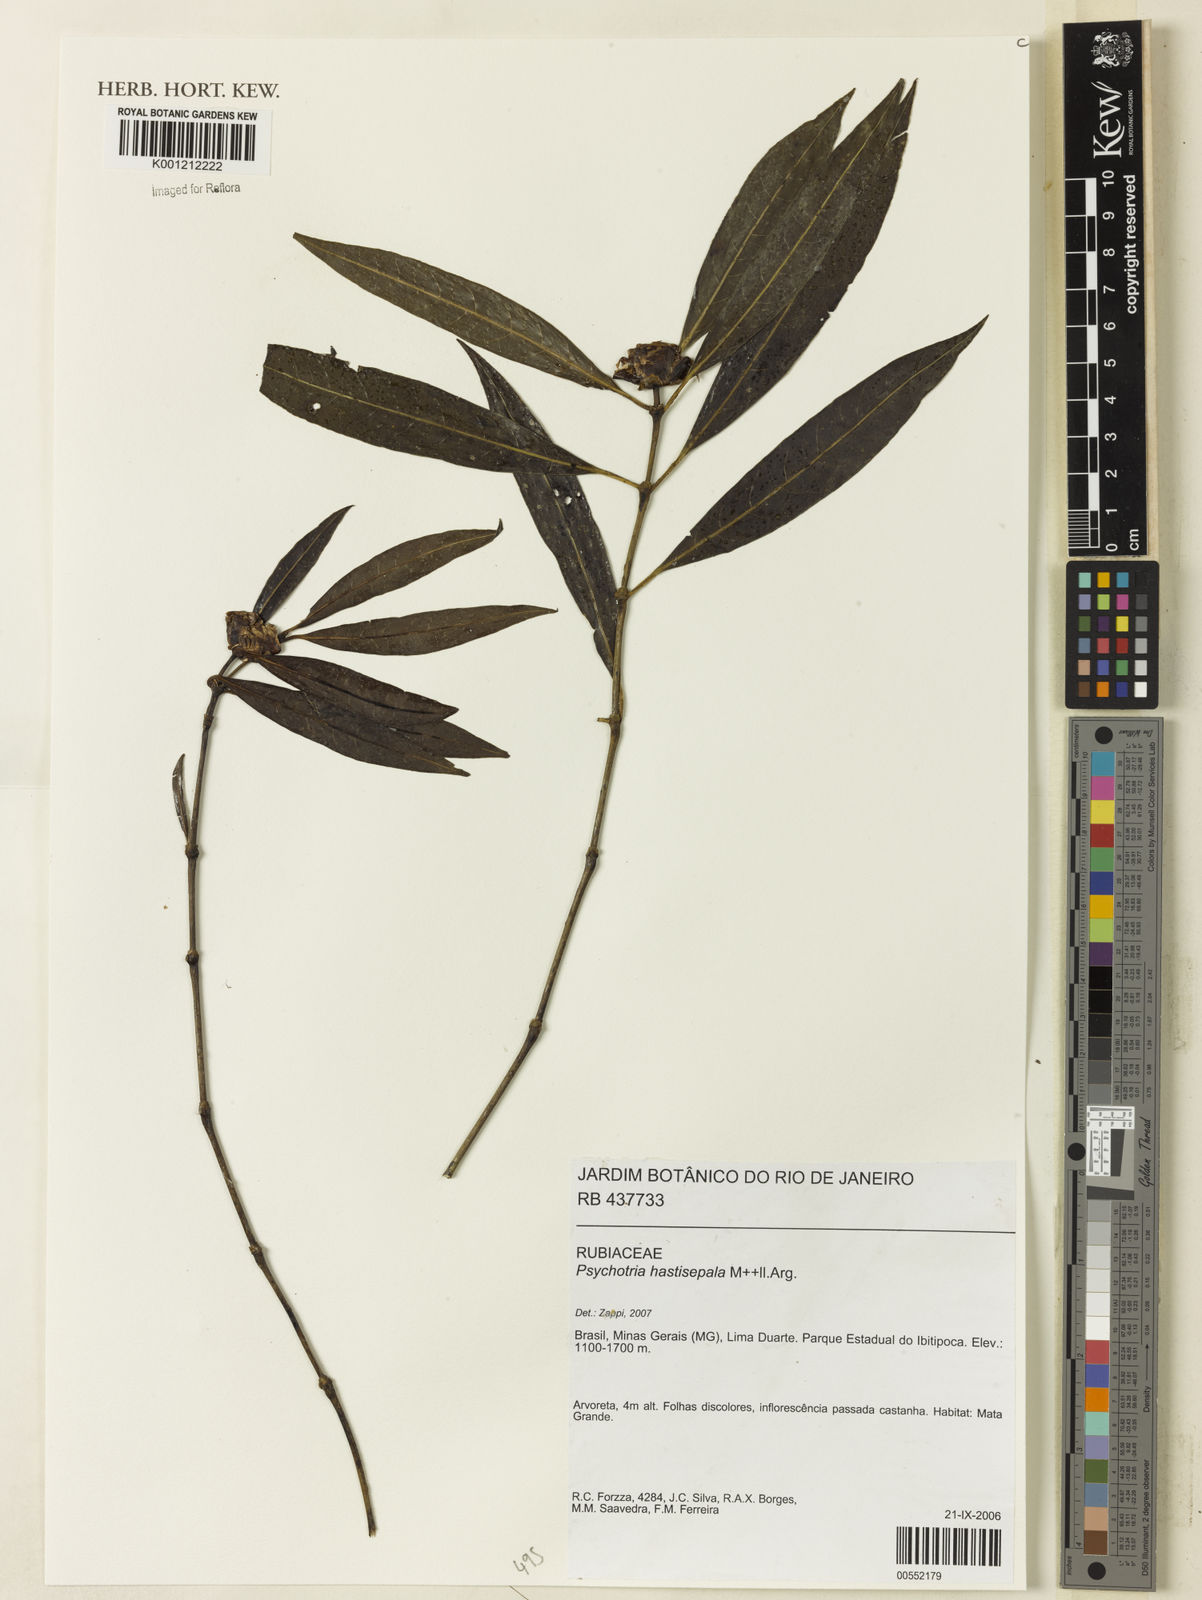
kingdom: Plantae
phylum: Tracheophyta
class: Magnoliopsida
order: Gentianales
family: Rubiaceae
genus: Psychotria
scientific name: Psychotria
